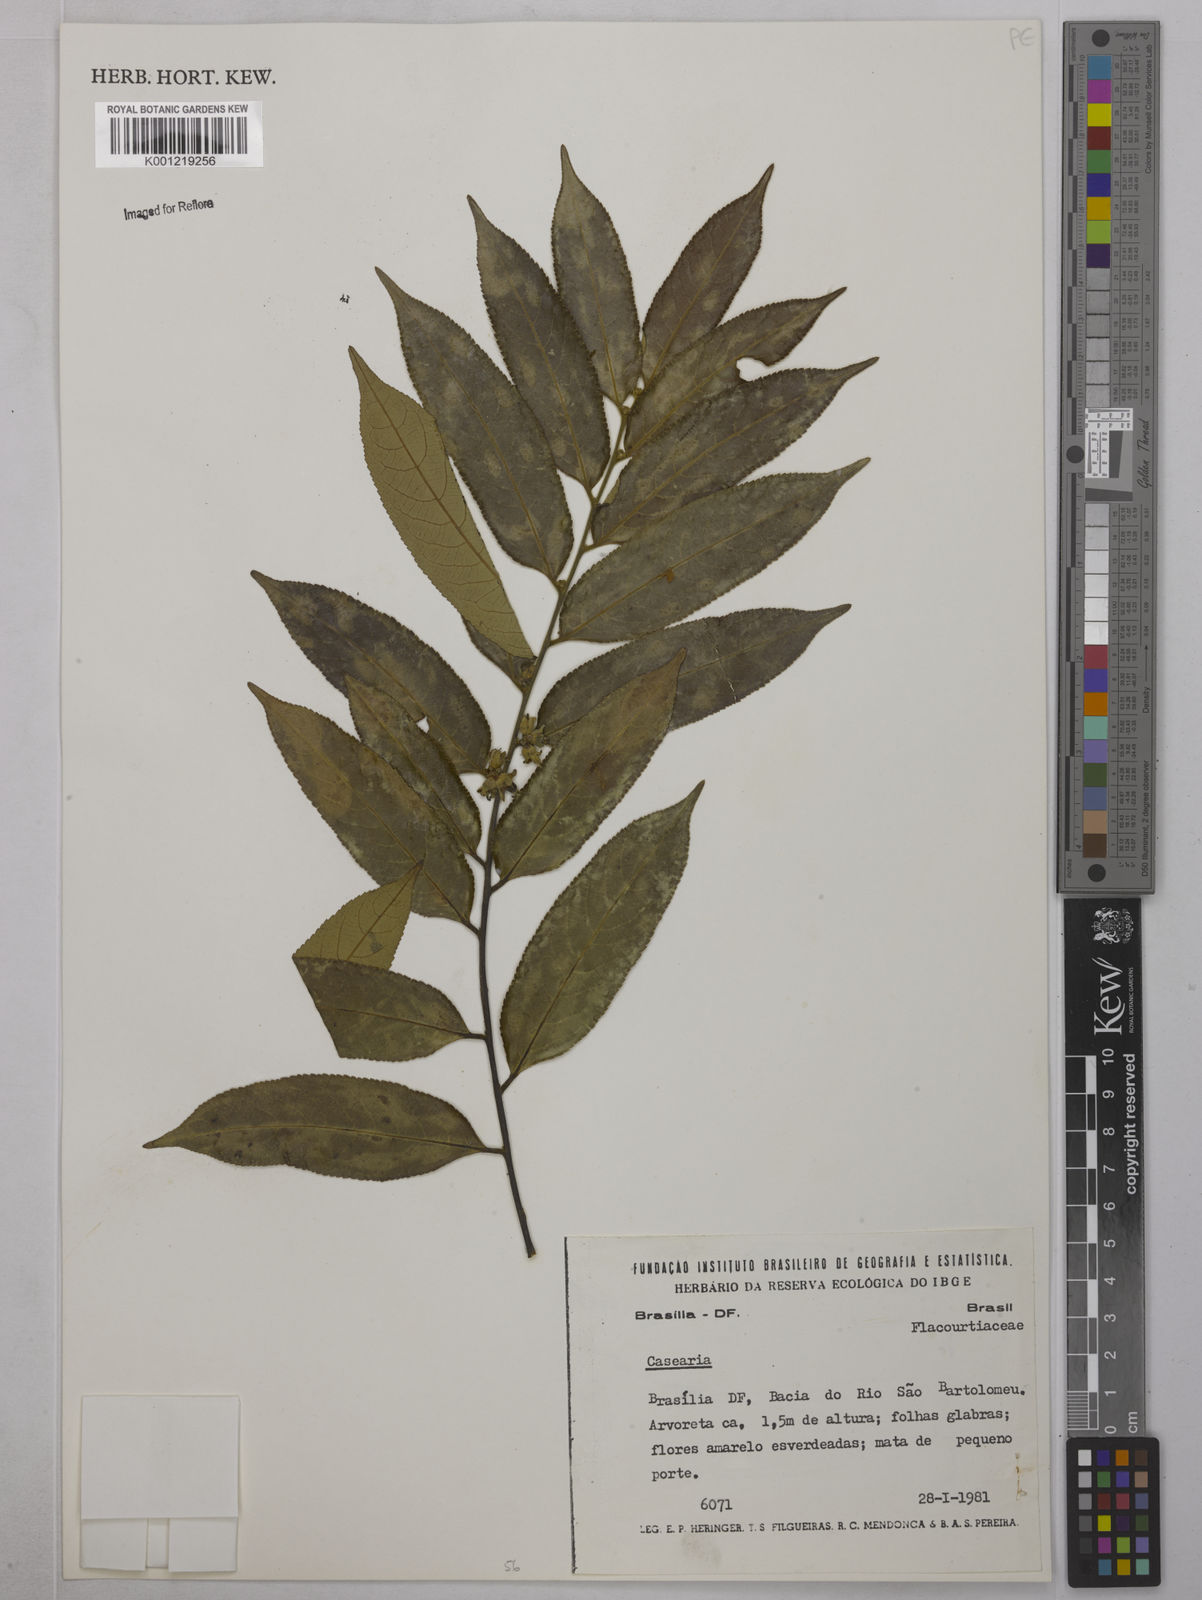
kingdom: Plantae
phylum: Tracheophyta
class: Magnoliopsida
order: Malpighiales
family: Salicaceae
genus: Casearia
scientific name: Casearia
